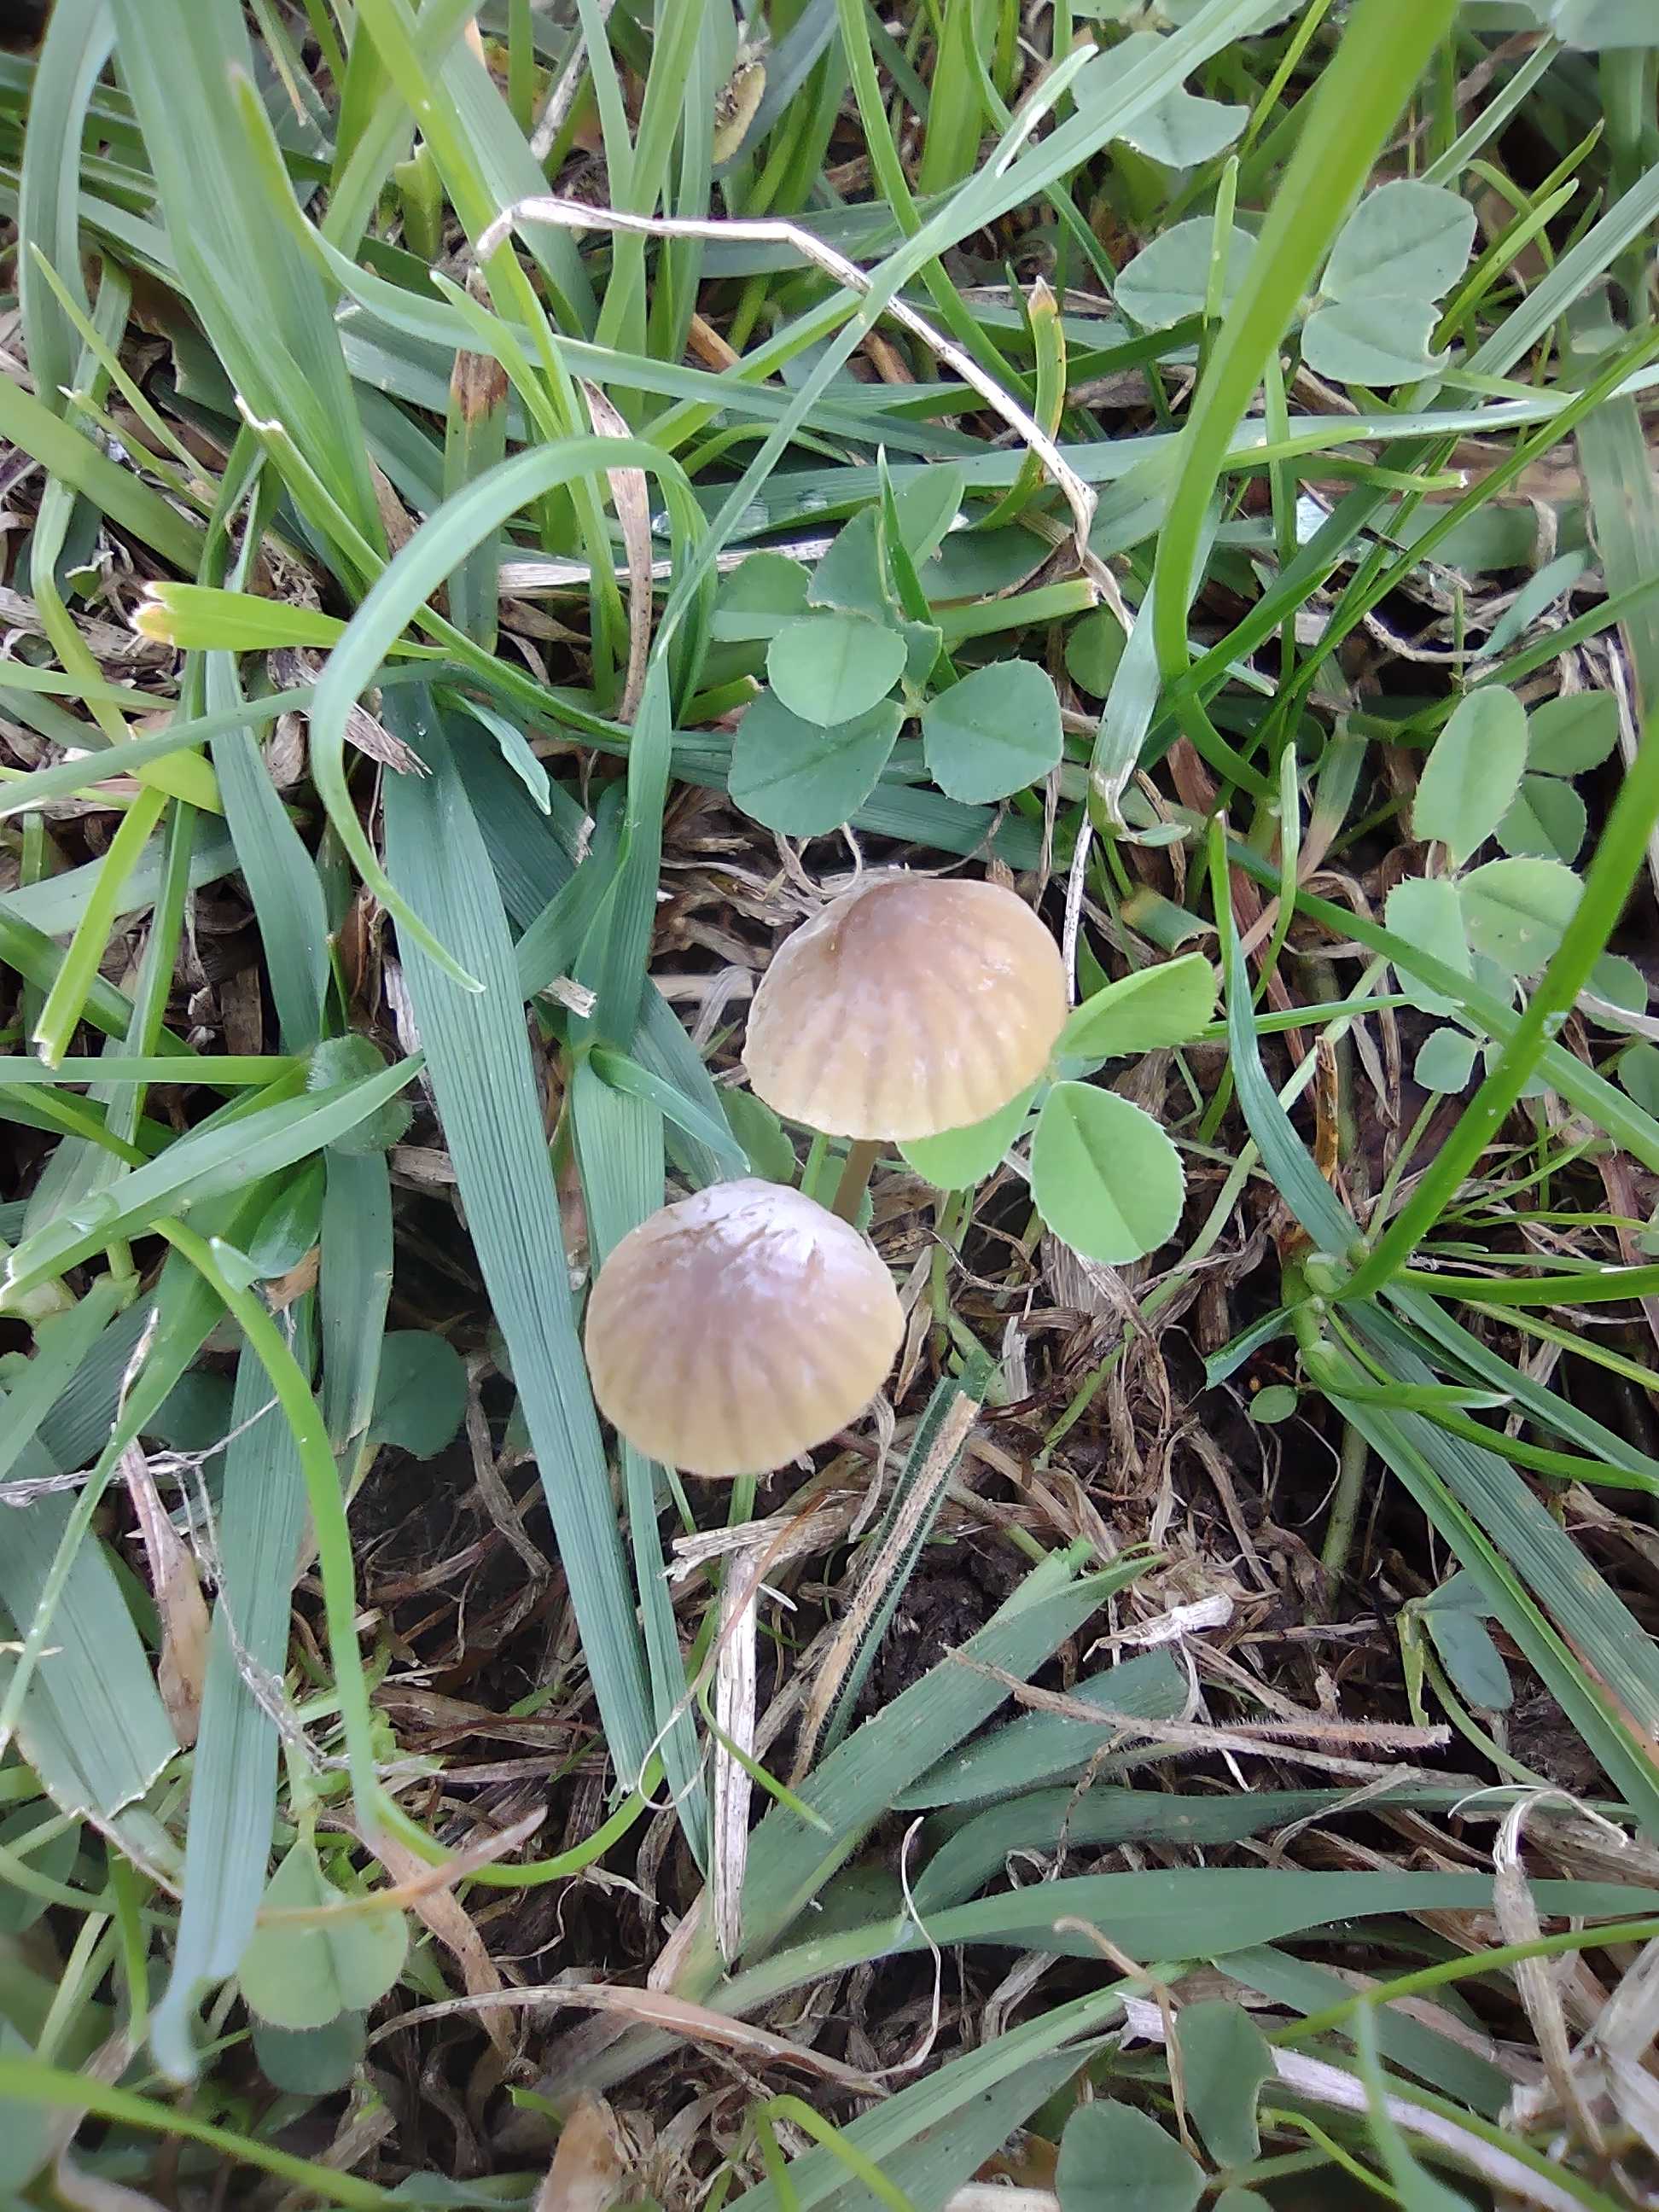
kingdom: Fungi
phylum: Basidiomycota
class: Agaricomycetes
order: Agaricales
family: Mycenaceae
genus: Mycena
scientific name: Mycena olivaceomarginata
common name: brunægget huesvamp
